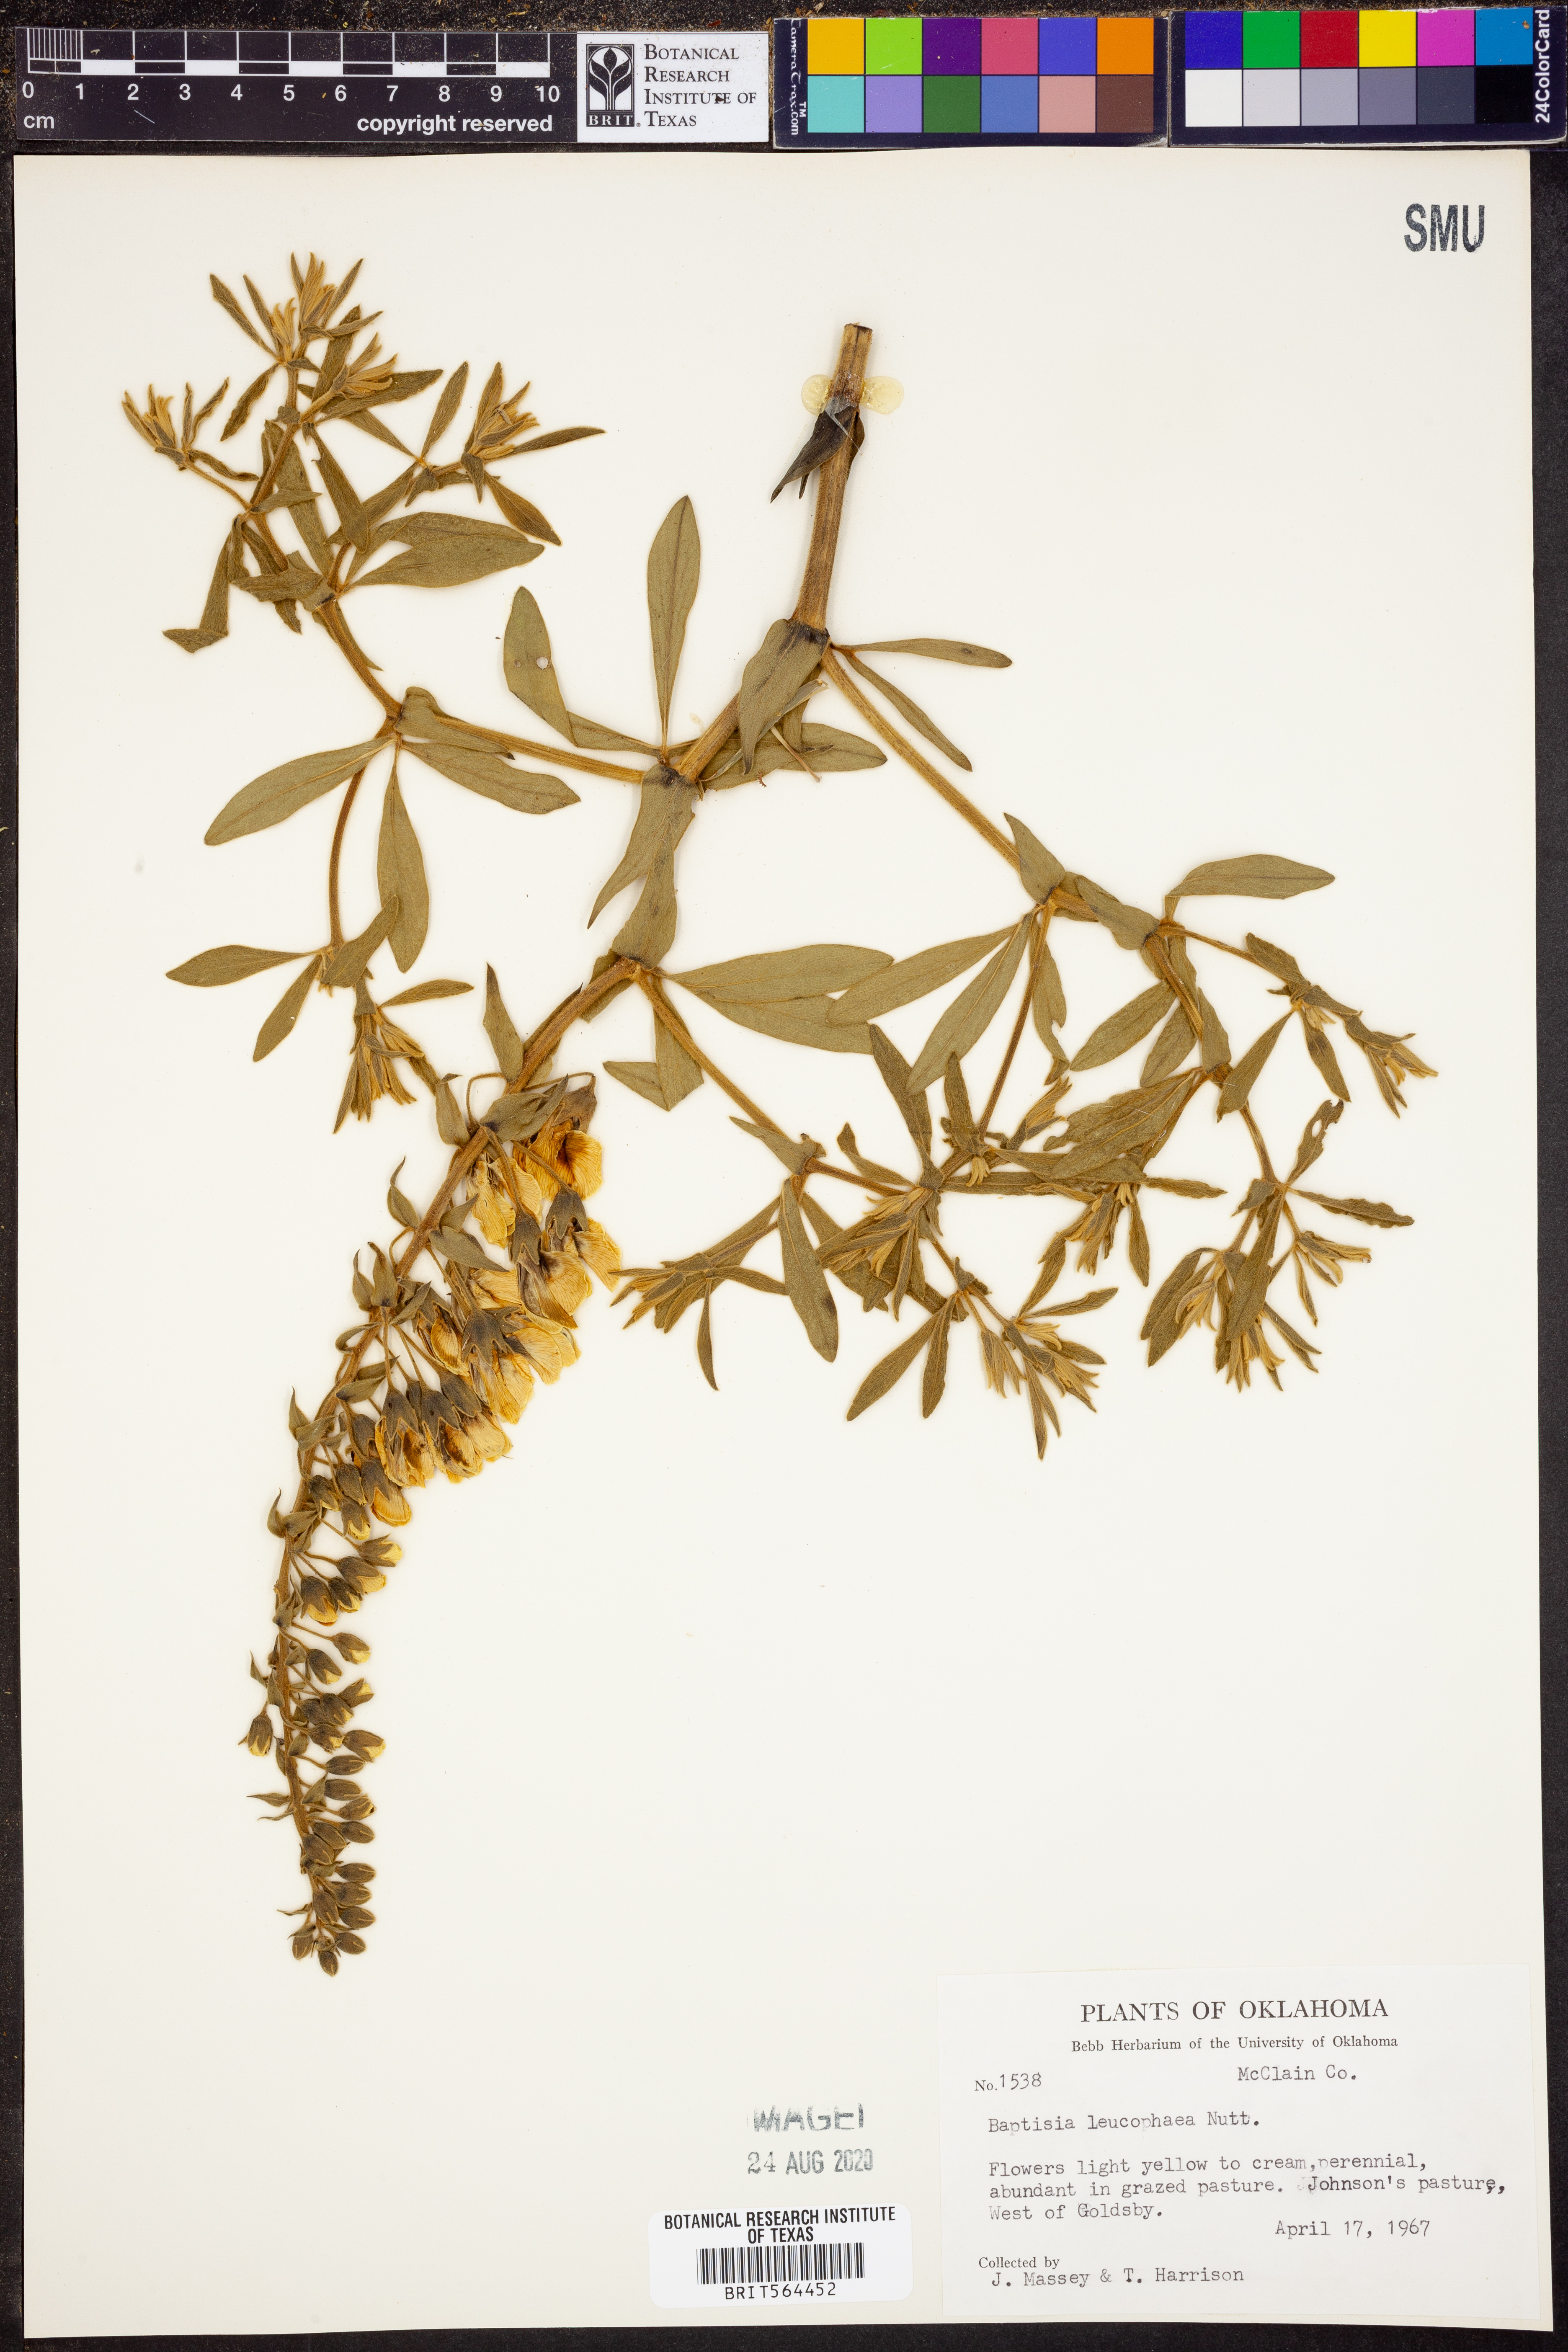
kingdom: Plantae
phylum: Tracheophyta
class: Magnoliopsida
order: Fabales
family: Fabaceae
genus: Baptisia
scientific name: Baptisia bracteata
